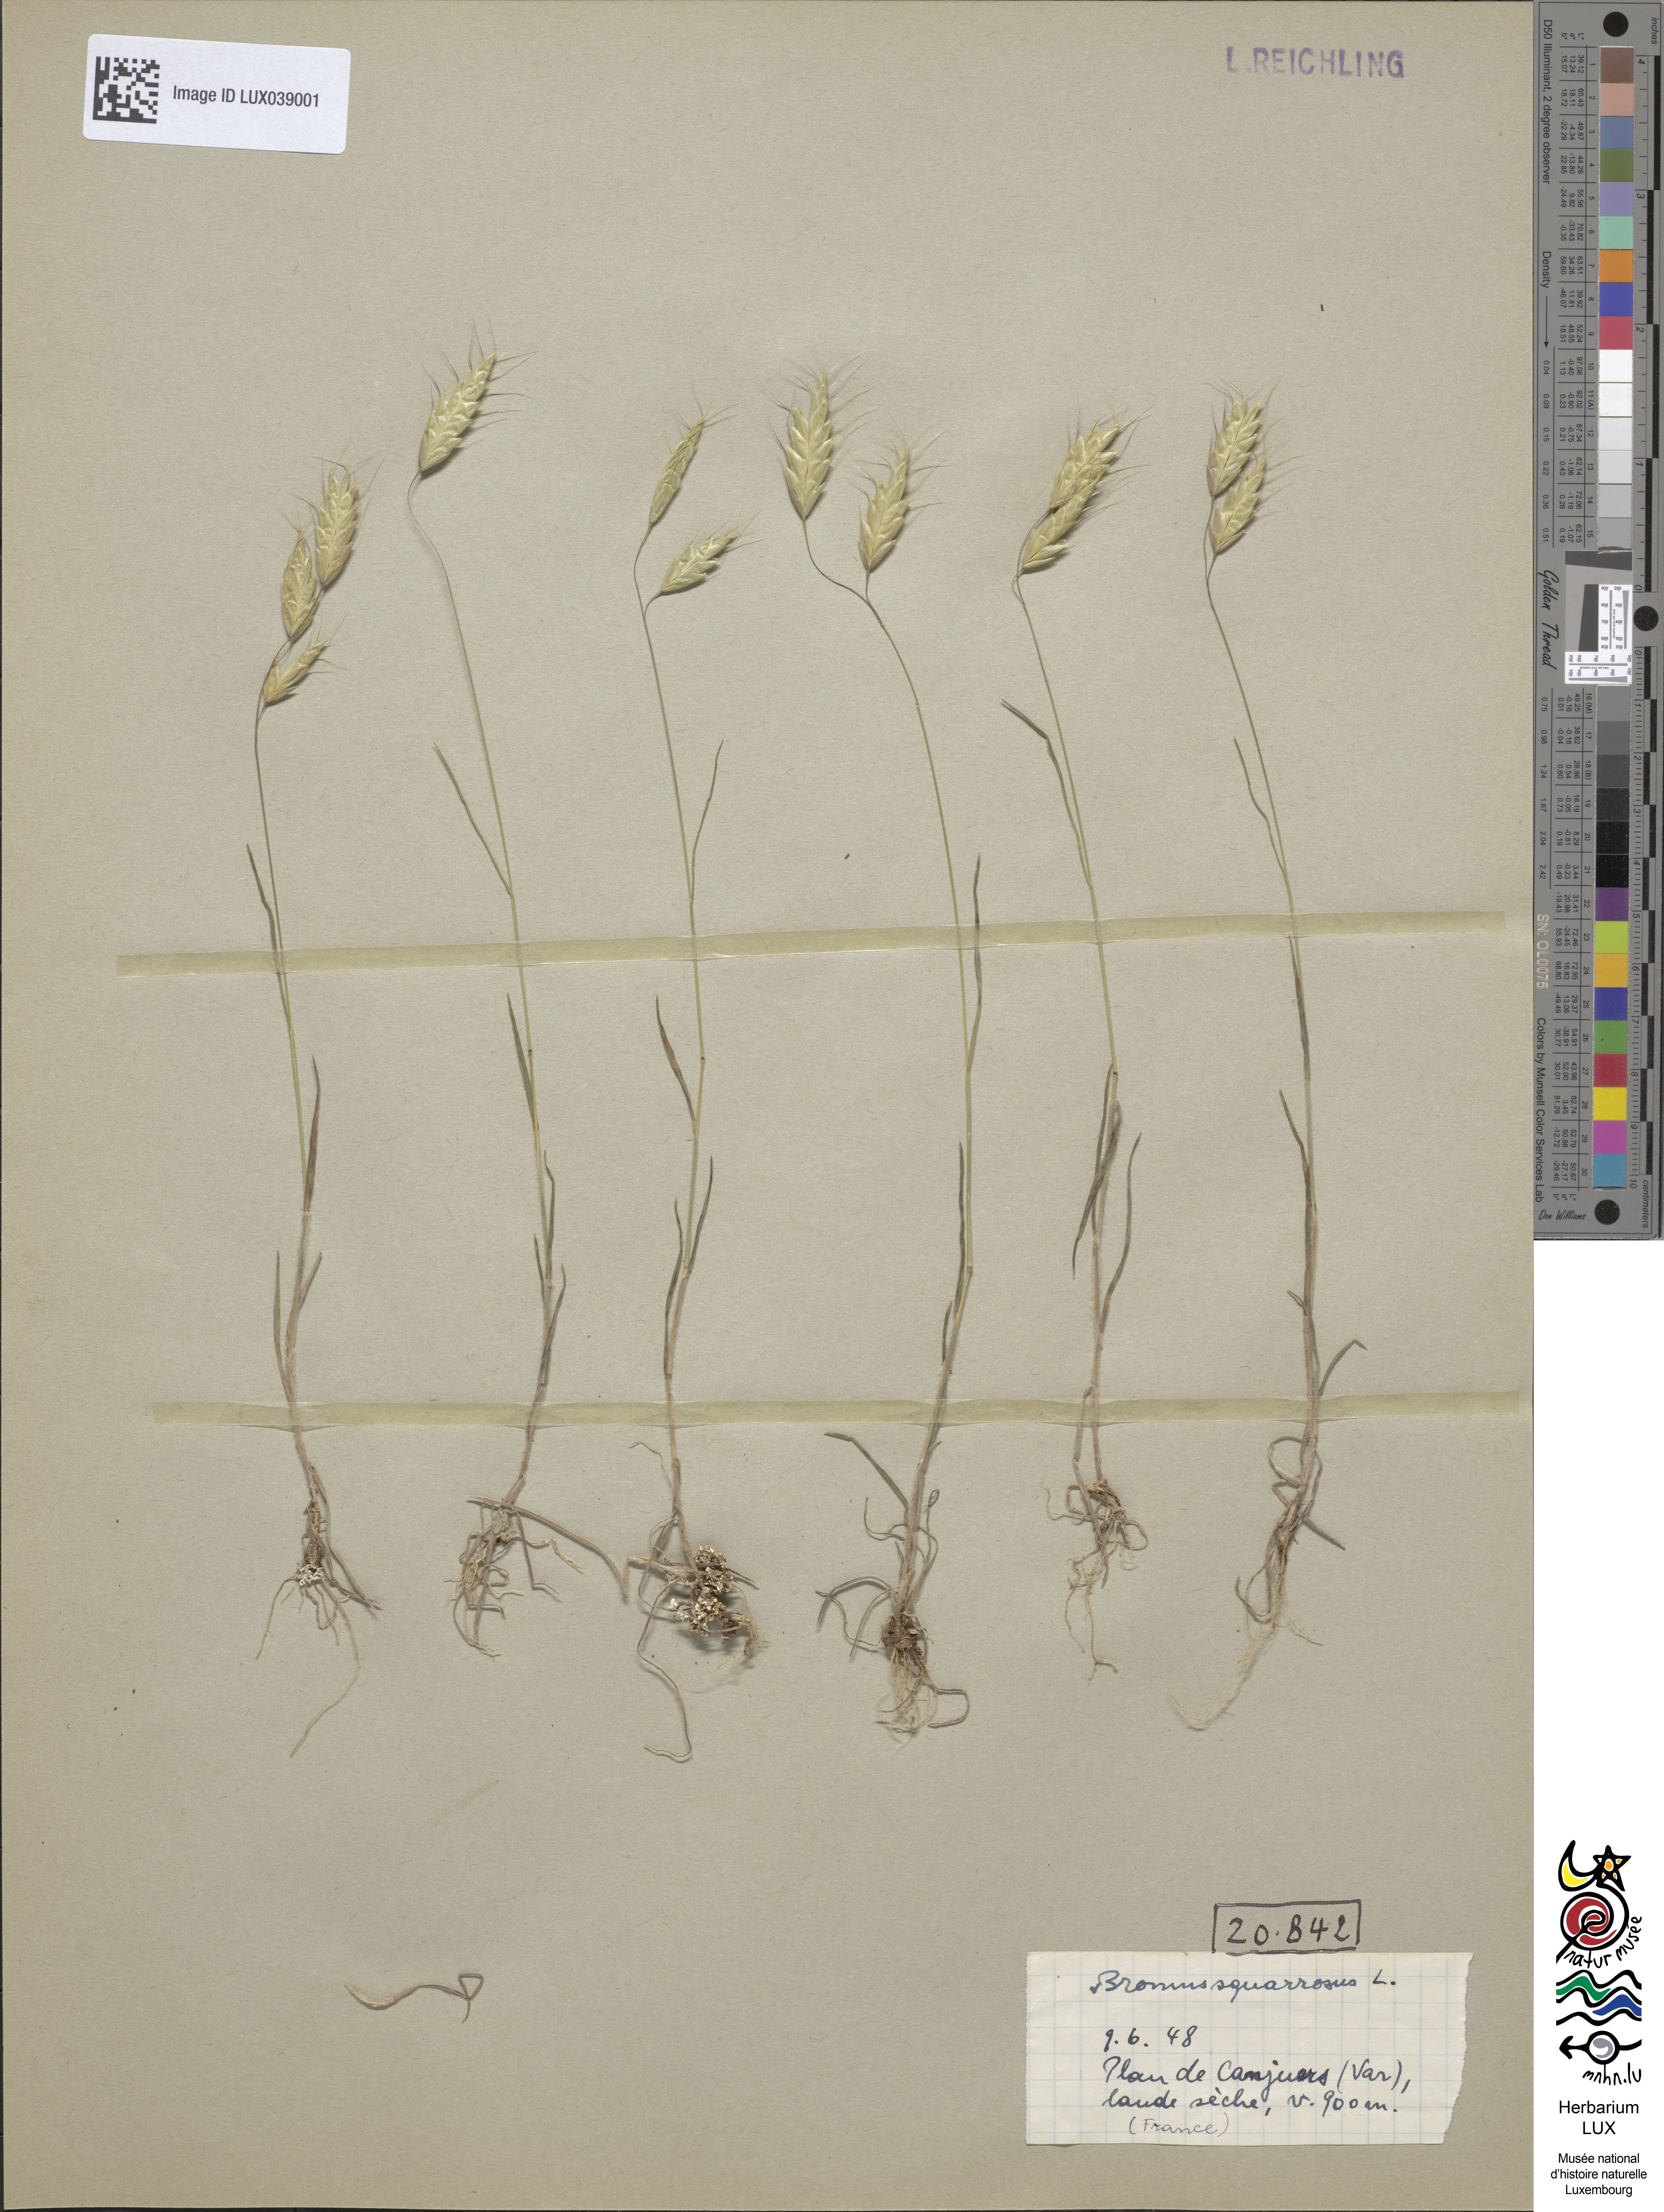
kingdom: Plantae
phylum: Tracheophyta
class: Liliopsida
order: Poales
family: Poaceae
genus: Bromus
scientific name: Bromus squarrosus
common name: Corn brome
